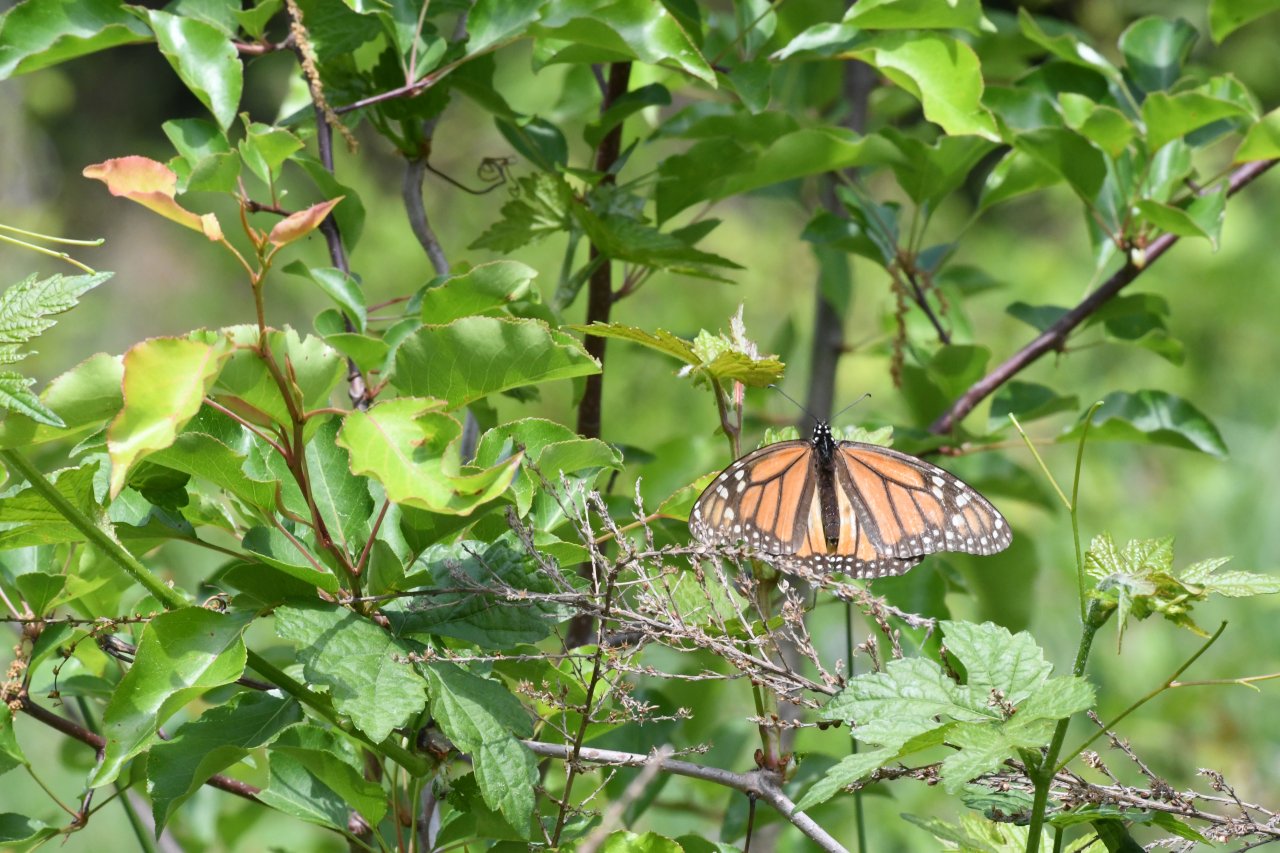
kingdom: Animalia
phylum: Arthropoda
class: Insecta
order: Lepidoptera
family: Nymphalidae
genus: Danaus
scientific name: Danaus plexippus
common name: Monarch
